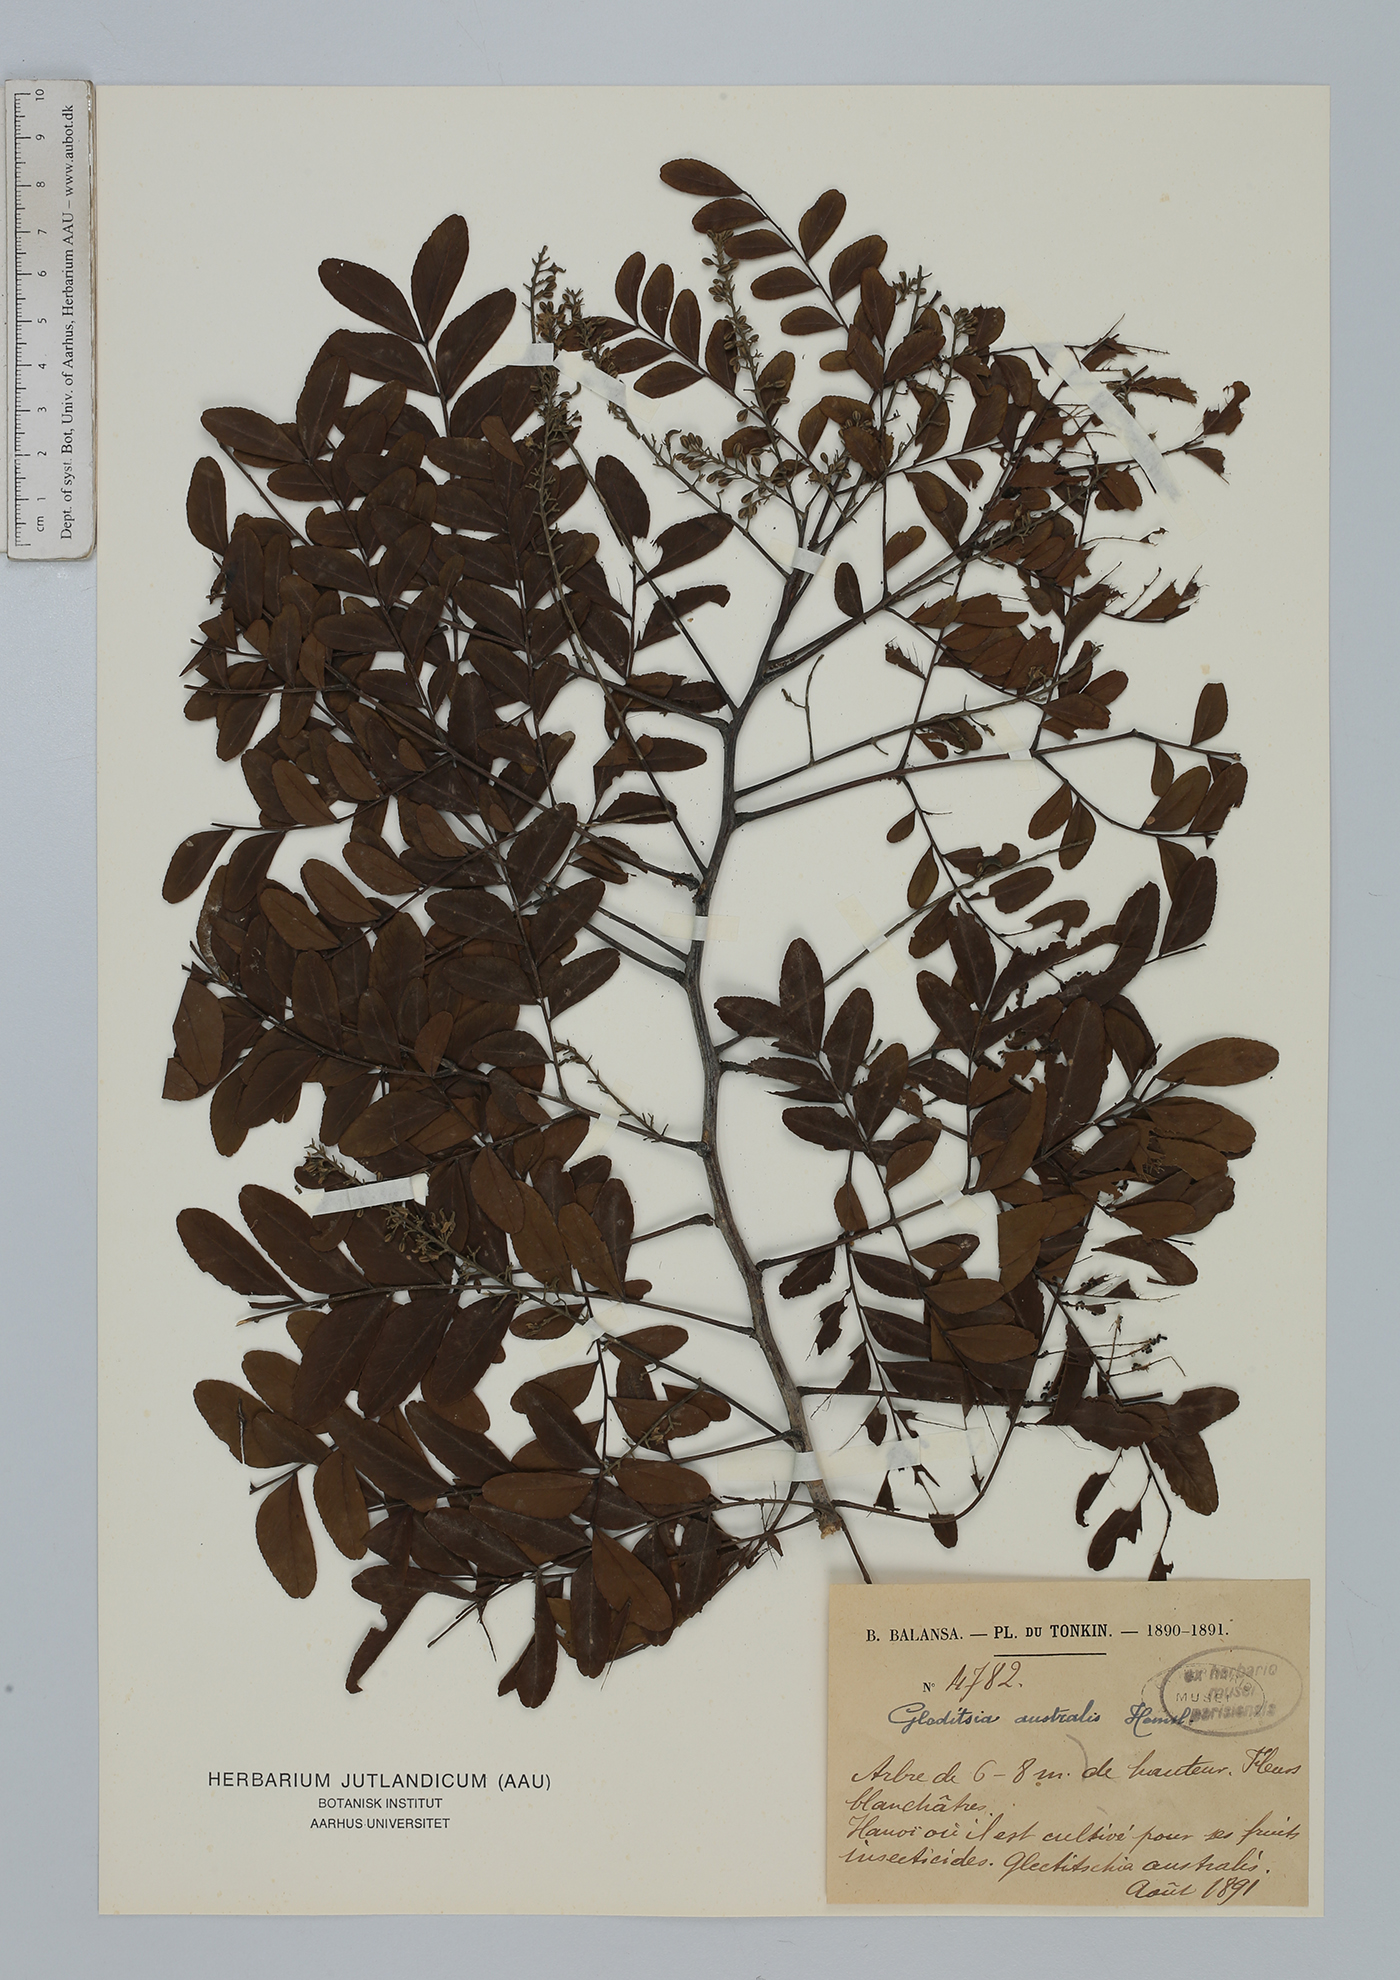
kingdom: Plantae
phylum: Tracheophyta
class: Magnoliopsida
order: Fabales
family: Fabaceae
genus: Gleditsia
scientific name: Gleditsia australis
